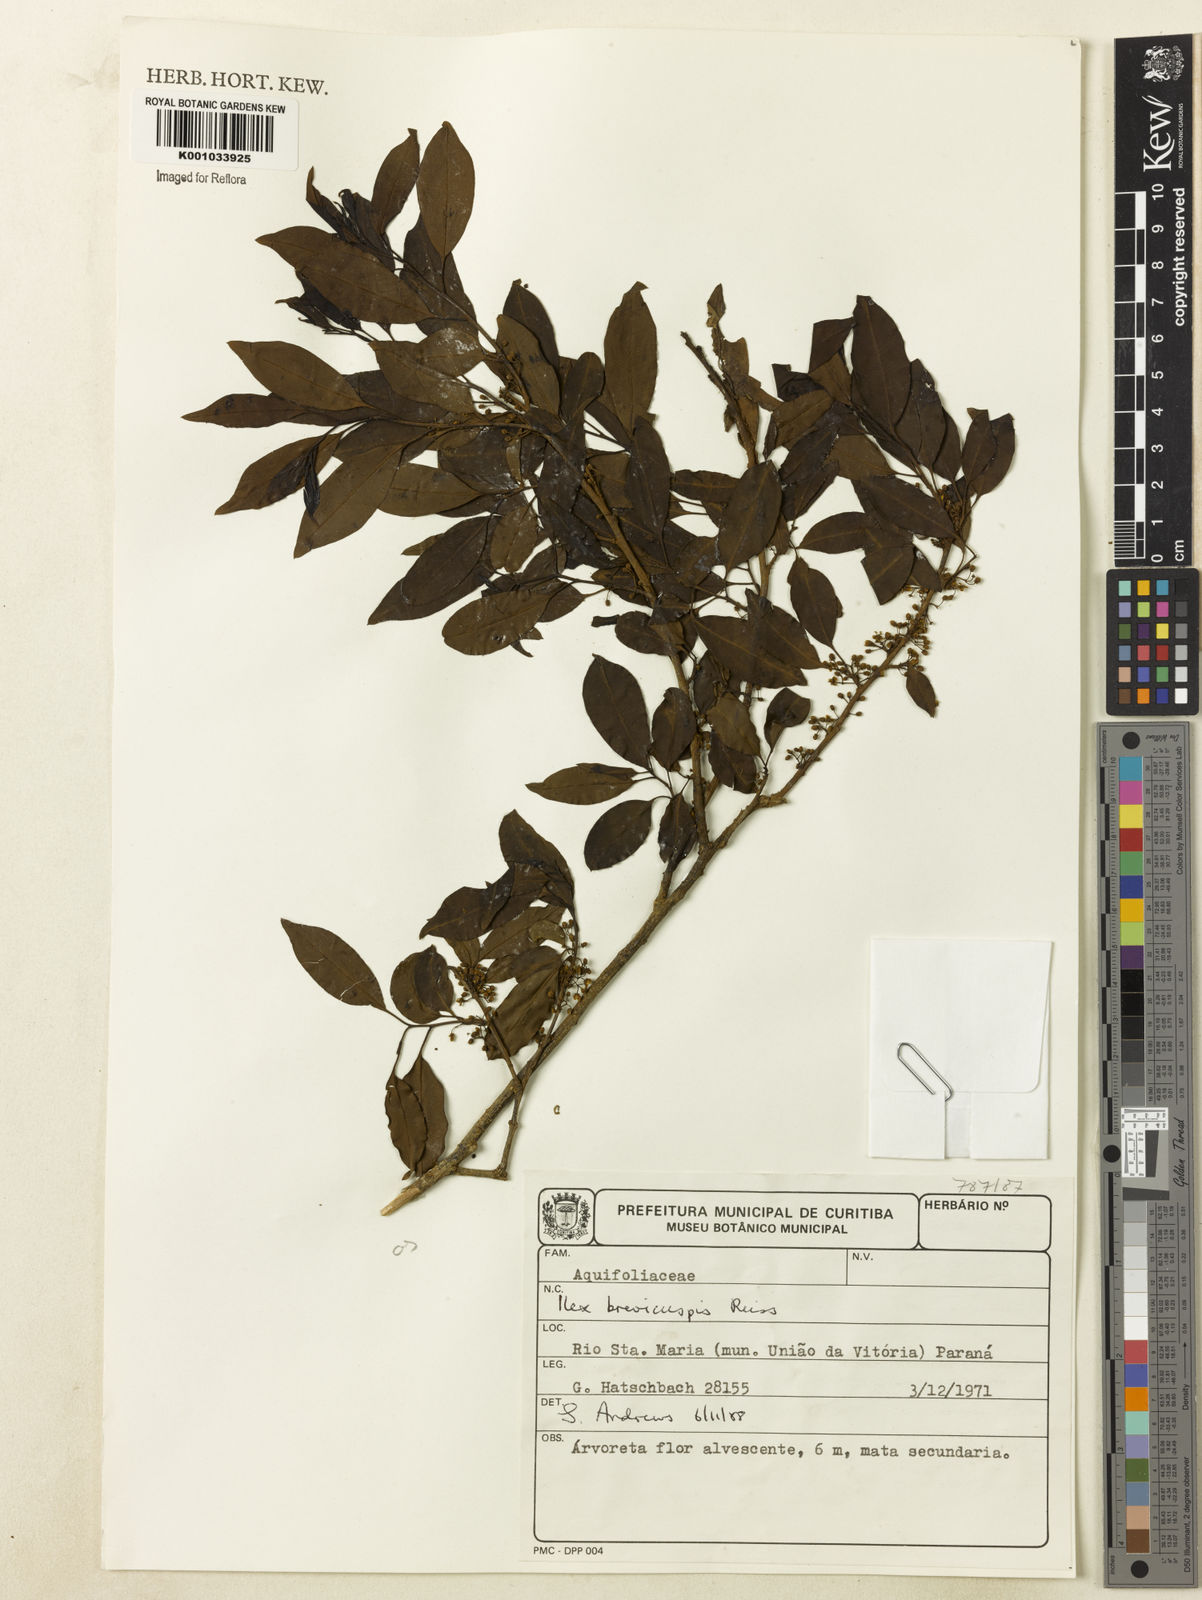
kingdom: Plantae
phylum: Tracheophyta
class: Magnoliopsida
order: Aquifoliales
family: Aquifoliaceae
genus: Ilex
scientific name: Ilex brevicuspis
